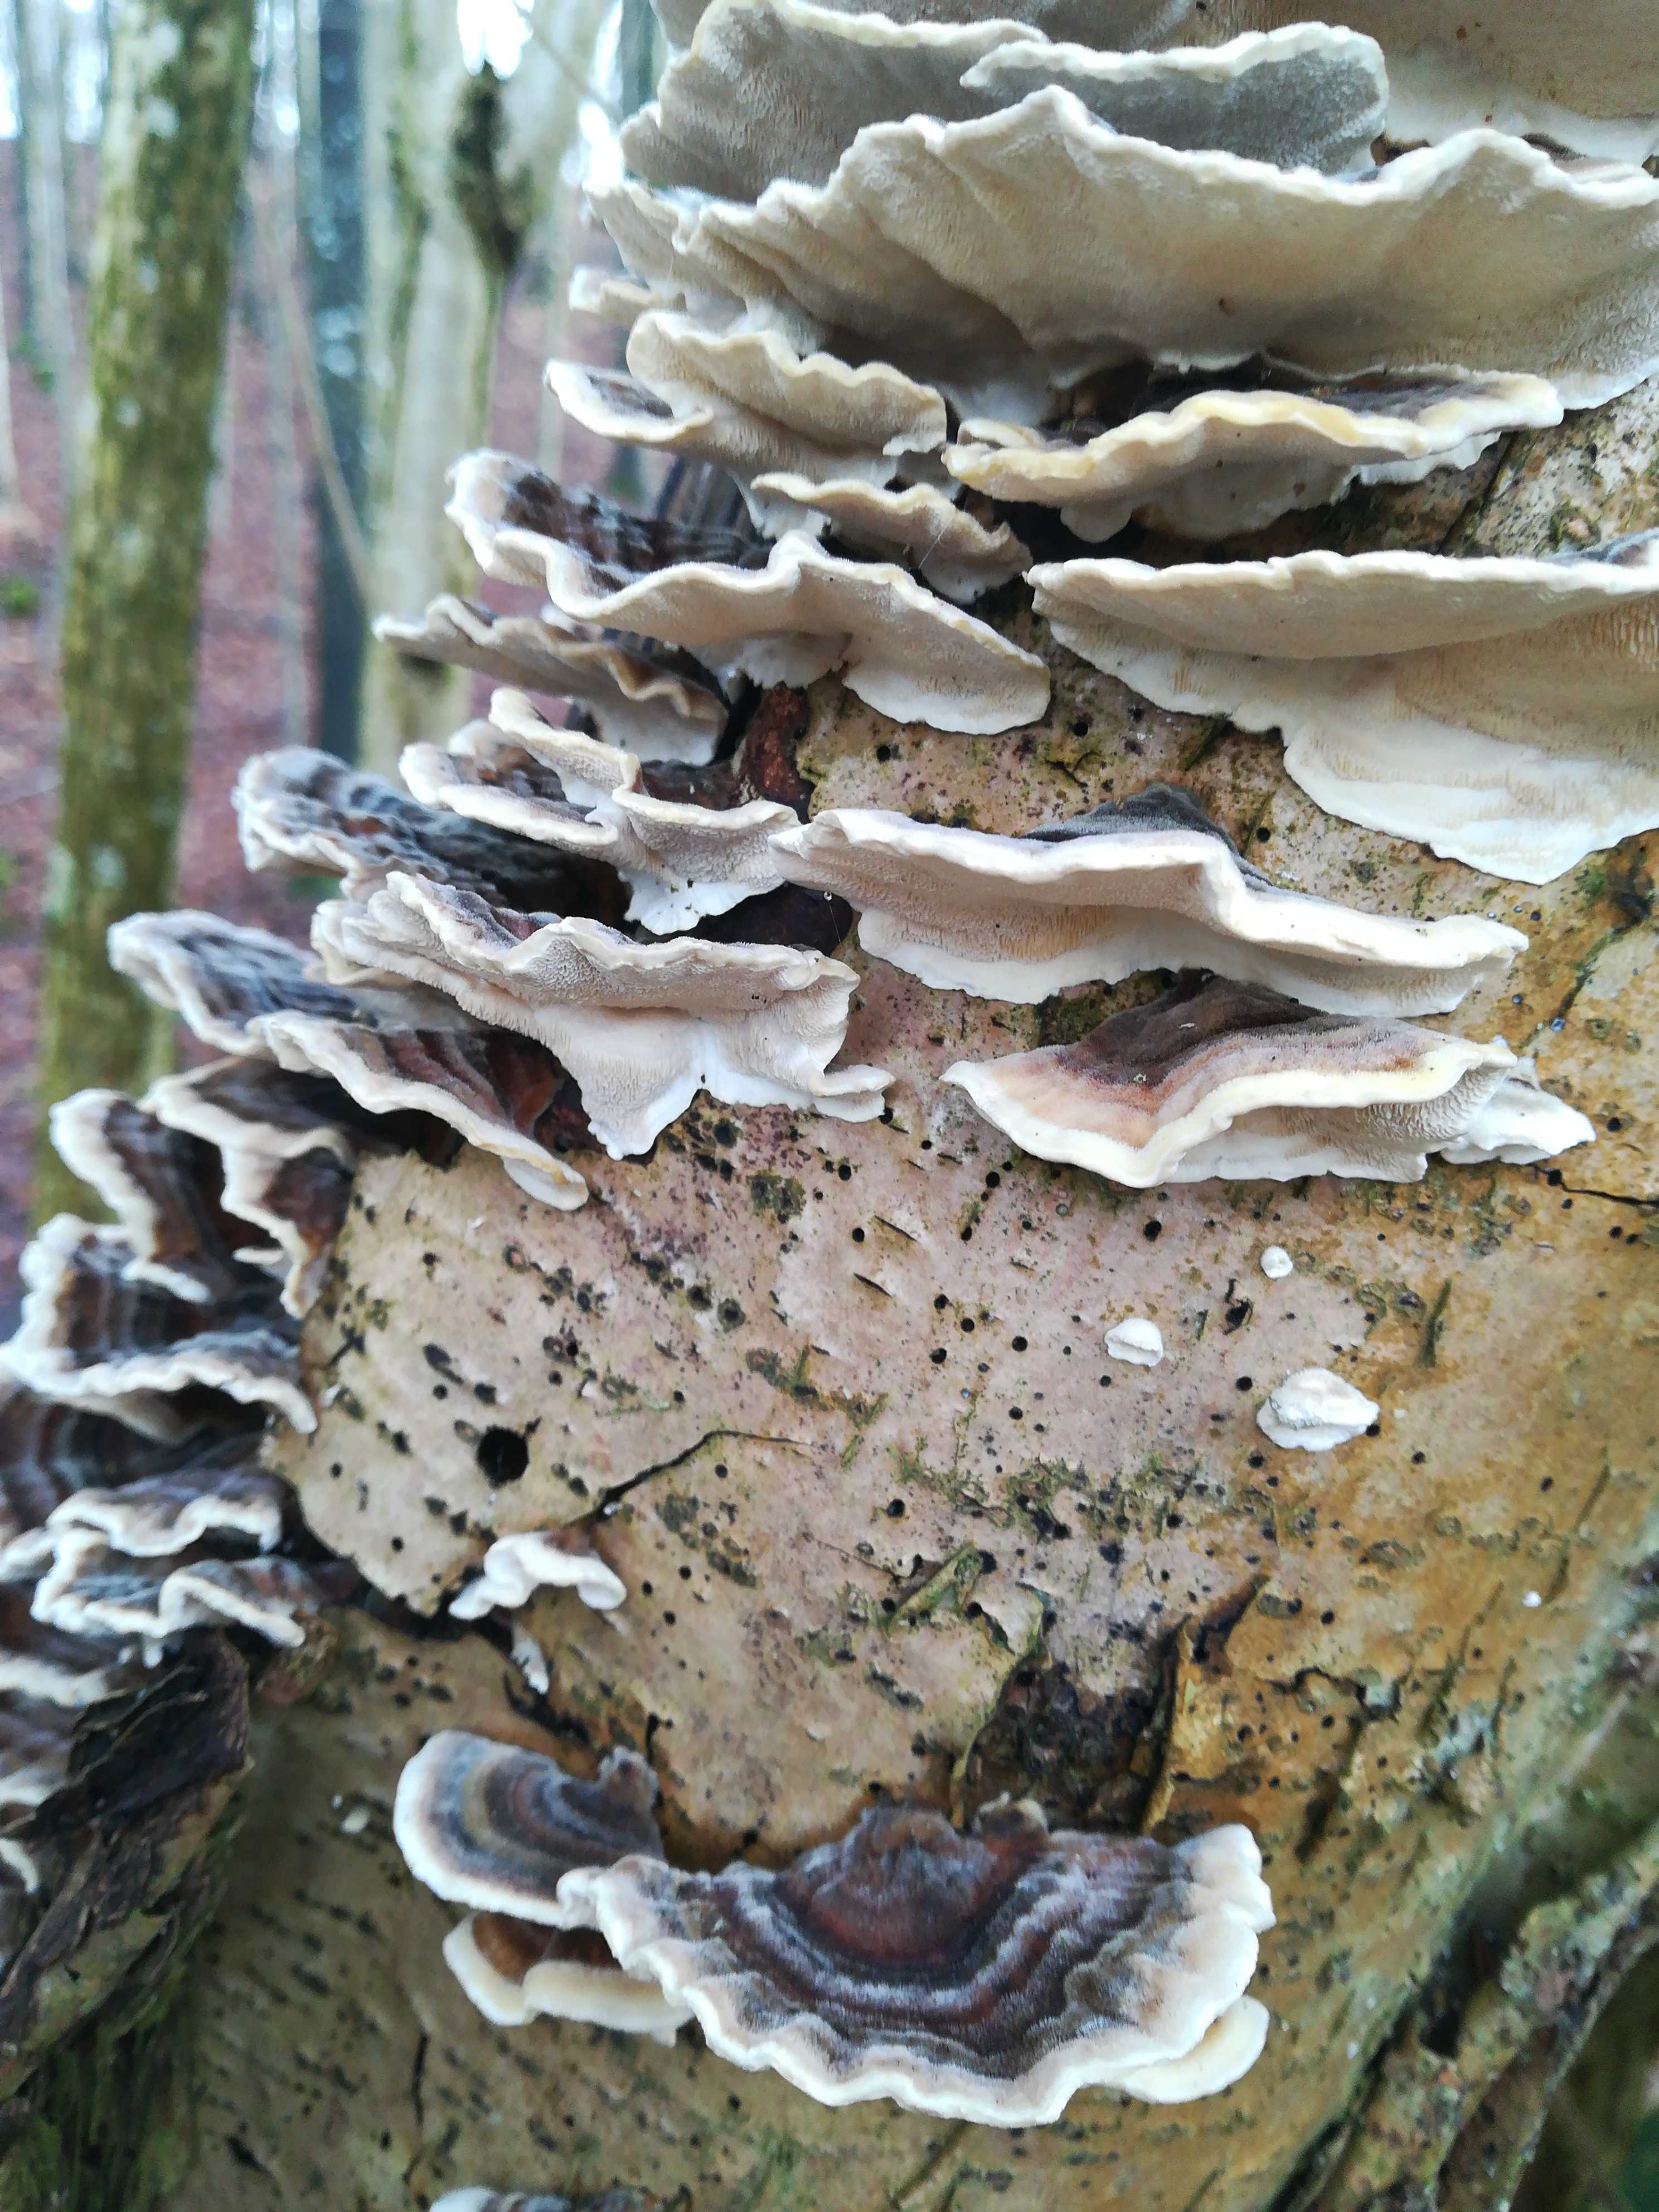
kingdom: Fungi
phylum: Basidiomycota
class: Agaricomycetes
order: Polyporales
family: Polyporaceae
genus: Trametes
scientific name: Trametes versicolor
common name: broget læderporesvamp
